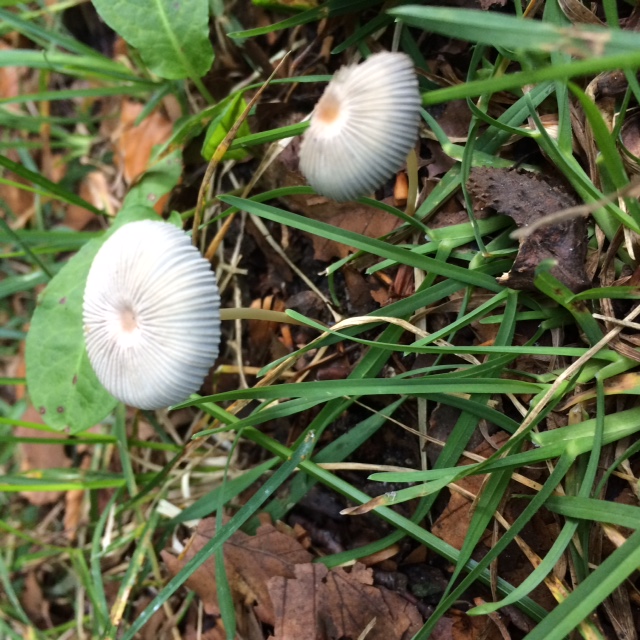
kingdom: Fungi
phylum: Basidiomycota
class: Agaricomycetes
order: Agaricales
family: Psathyrellaceae
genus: Parasola
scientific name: Parasola plicatilis
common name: plæne-hjulhat
